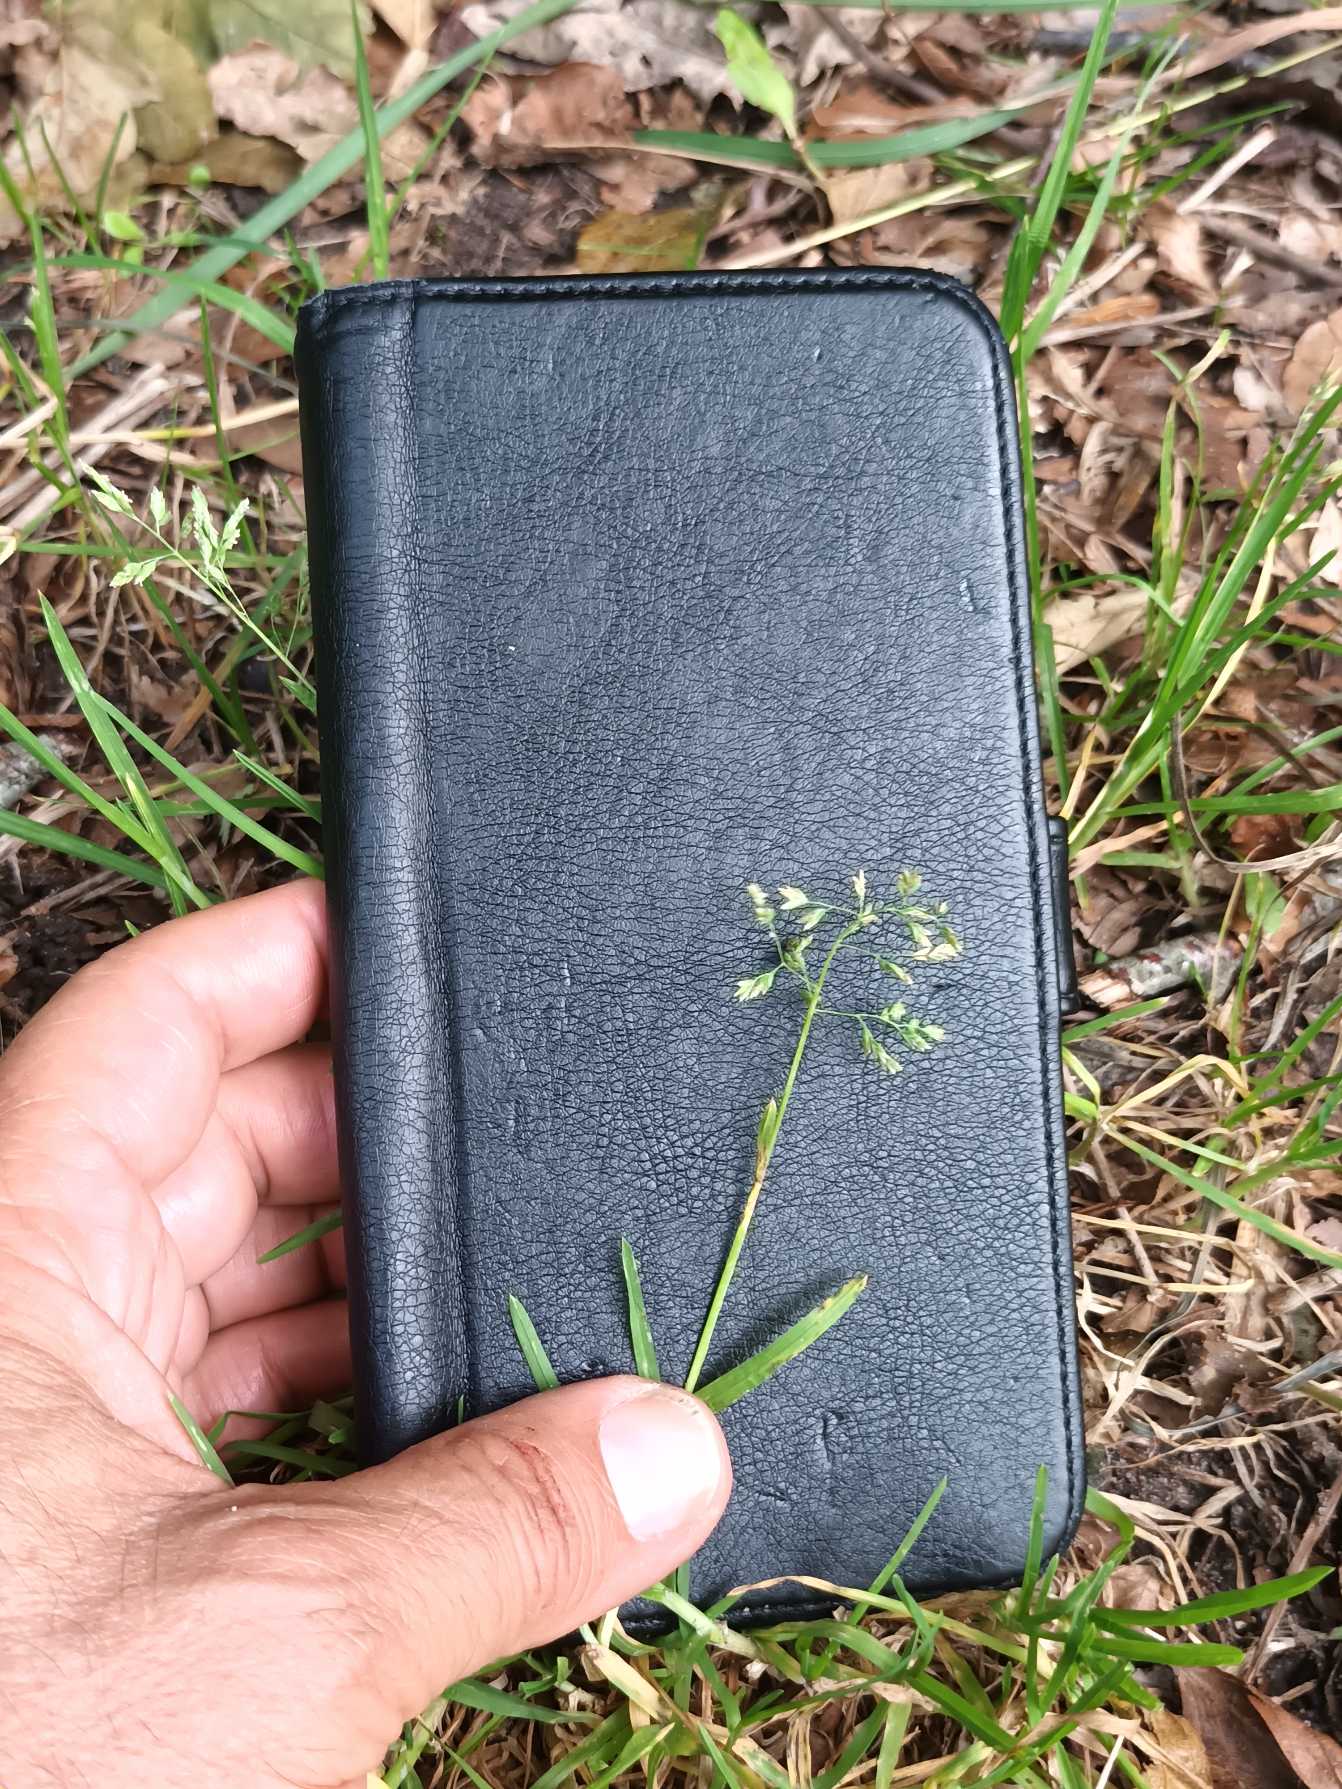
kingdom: Plantae
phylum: Tracheophyta
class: Liliopsida
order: Poales
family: Poaceae
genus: Poa
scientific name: Poa annua
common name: Enårig rapgræs
